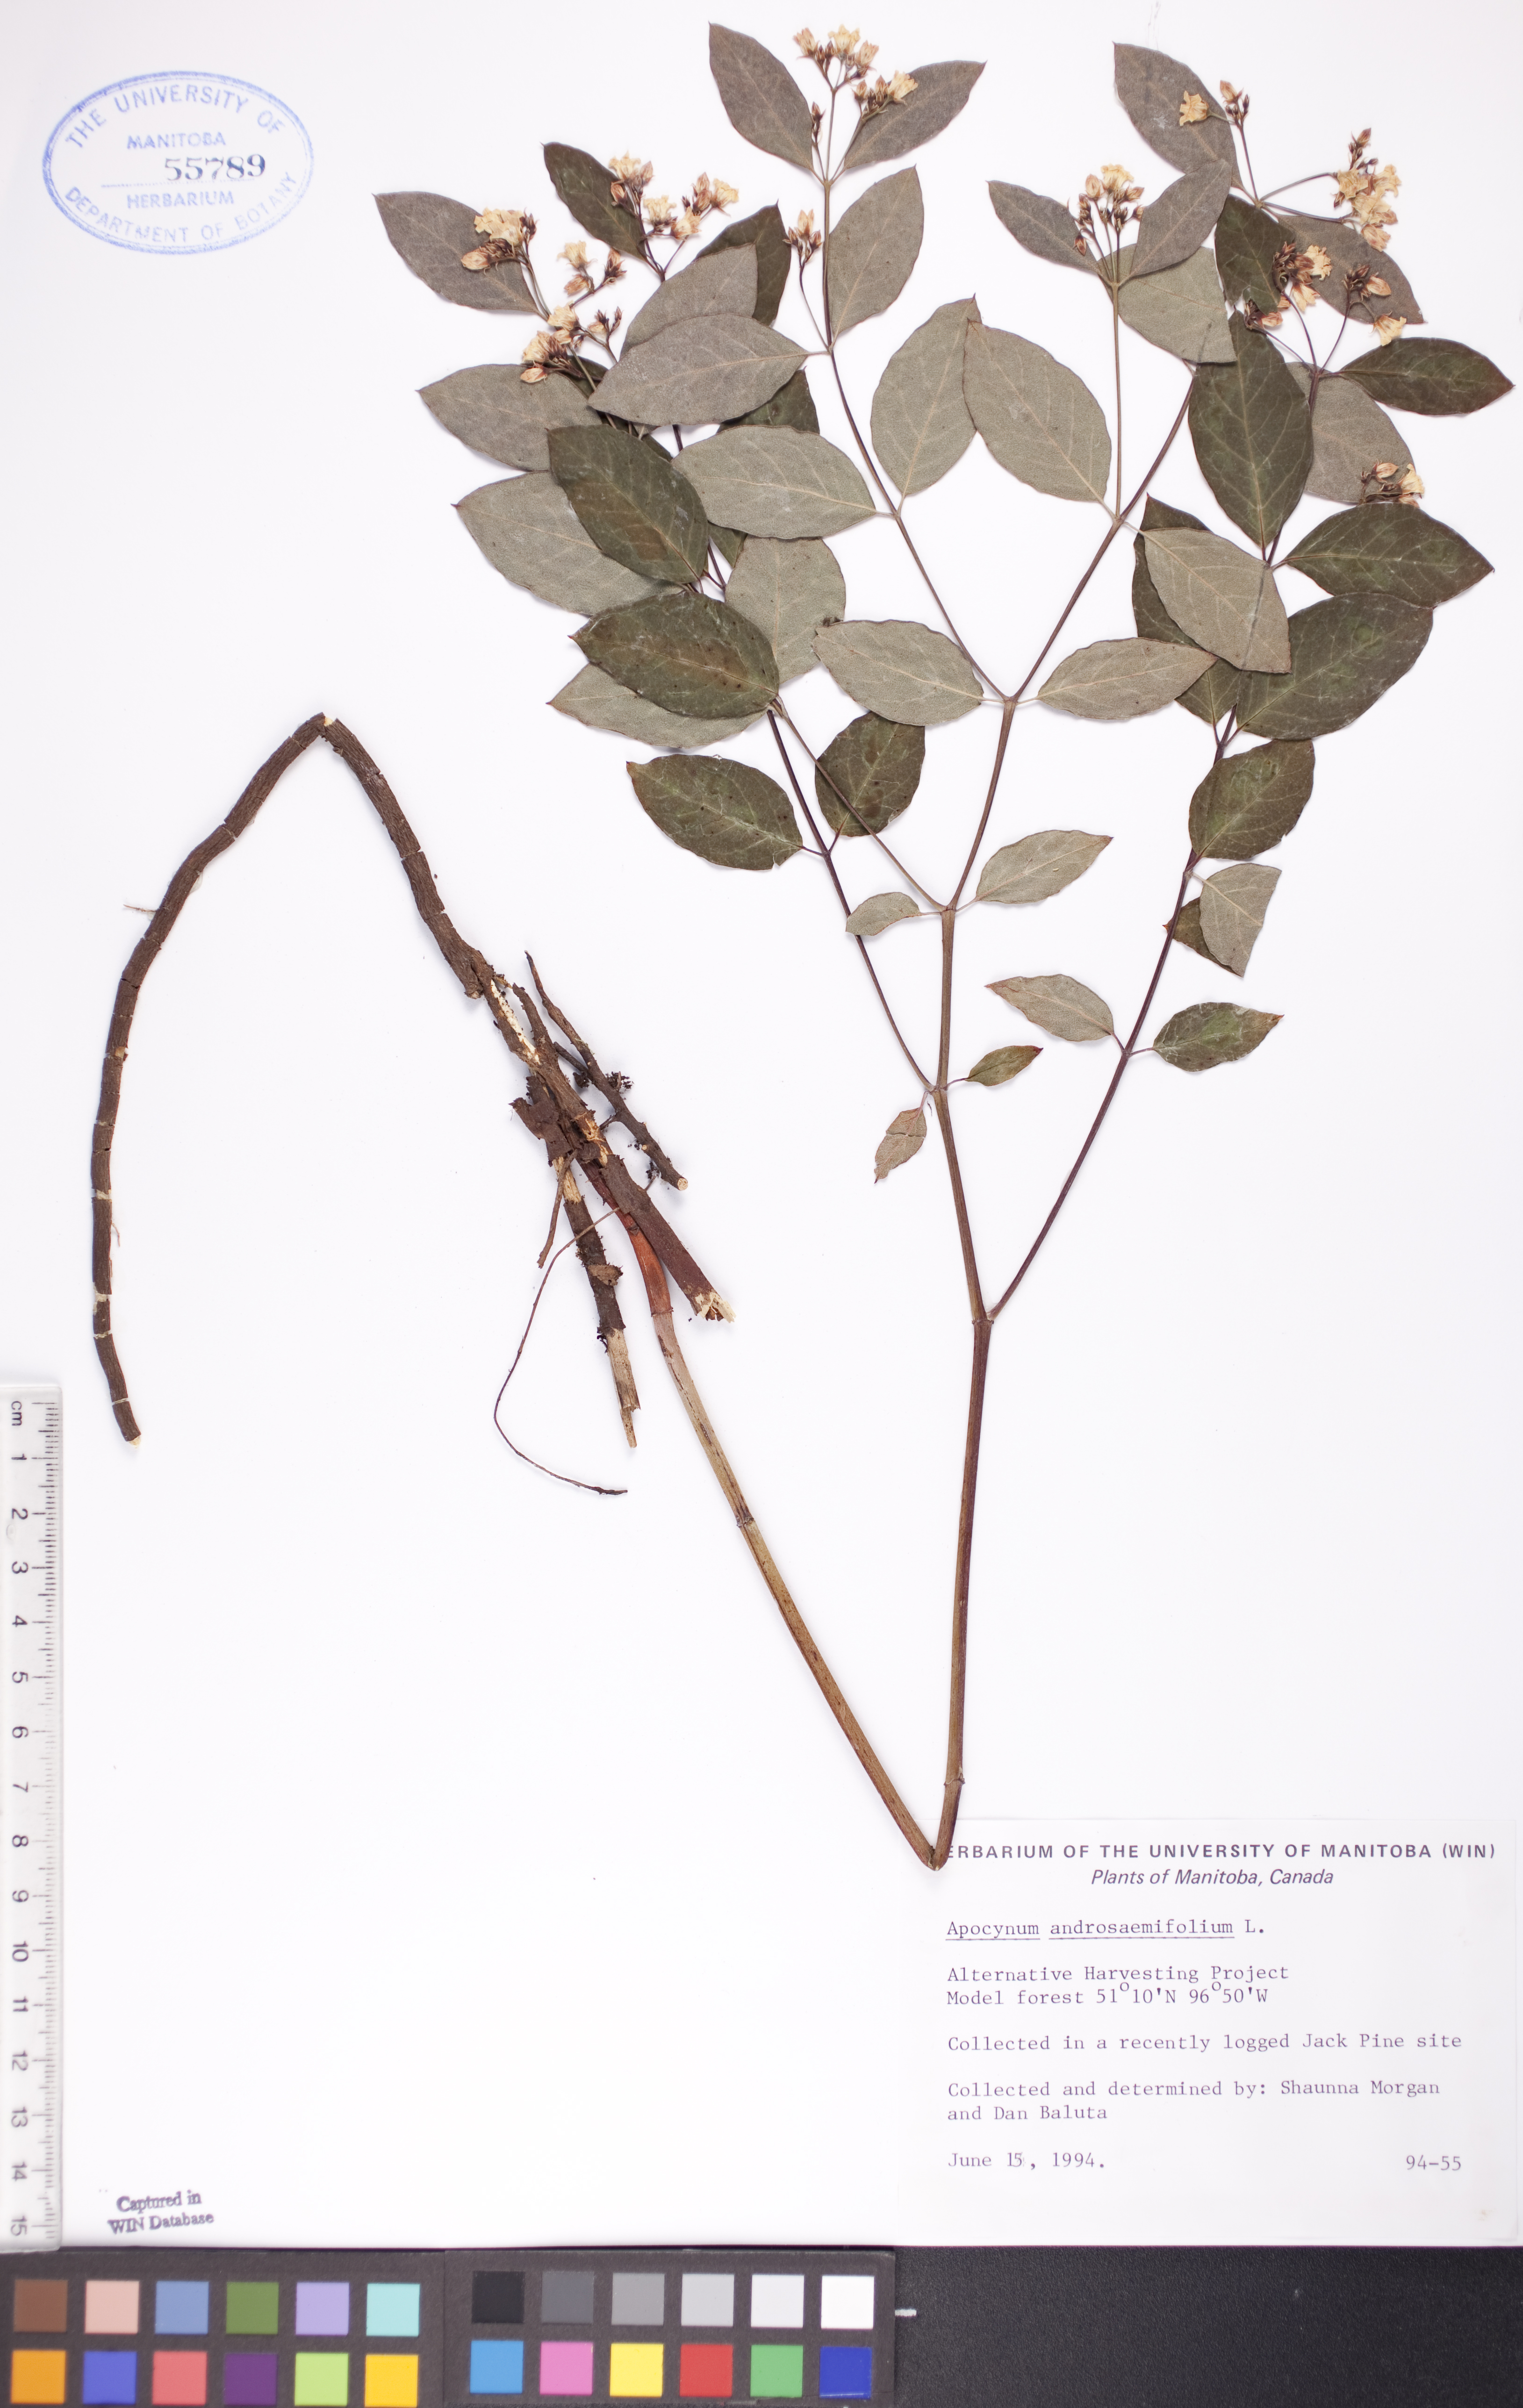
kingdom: Plantae
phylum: Tracheophyta
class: Magnoliopsida
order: Gentianales
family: Apocynaceae
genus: Apocynum
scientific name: Apocynum androsaemifolium
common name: Spreading dogbane
